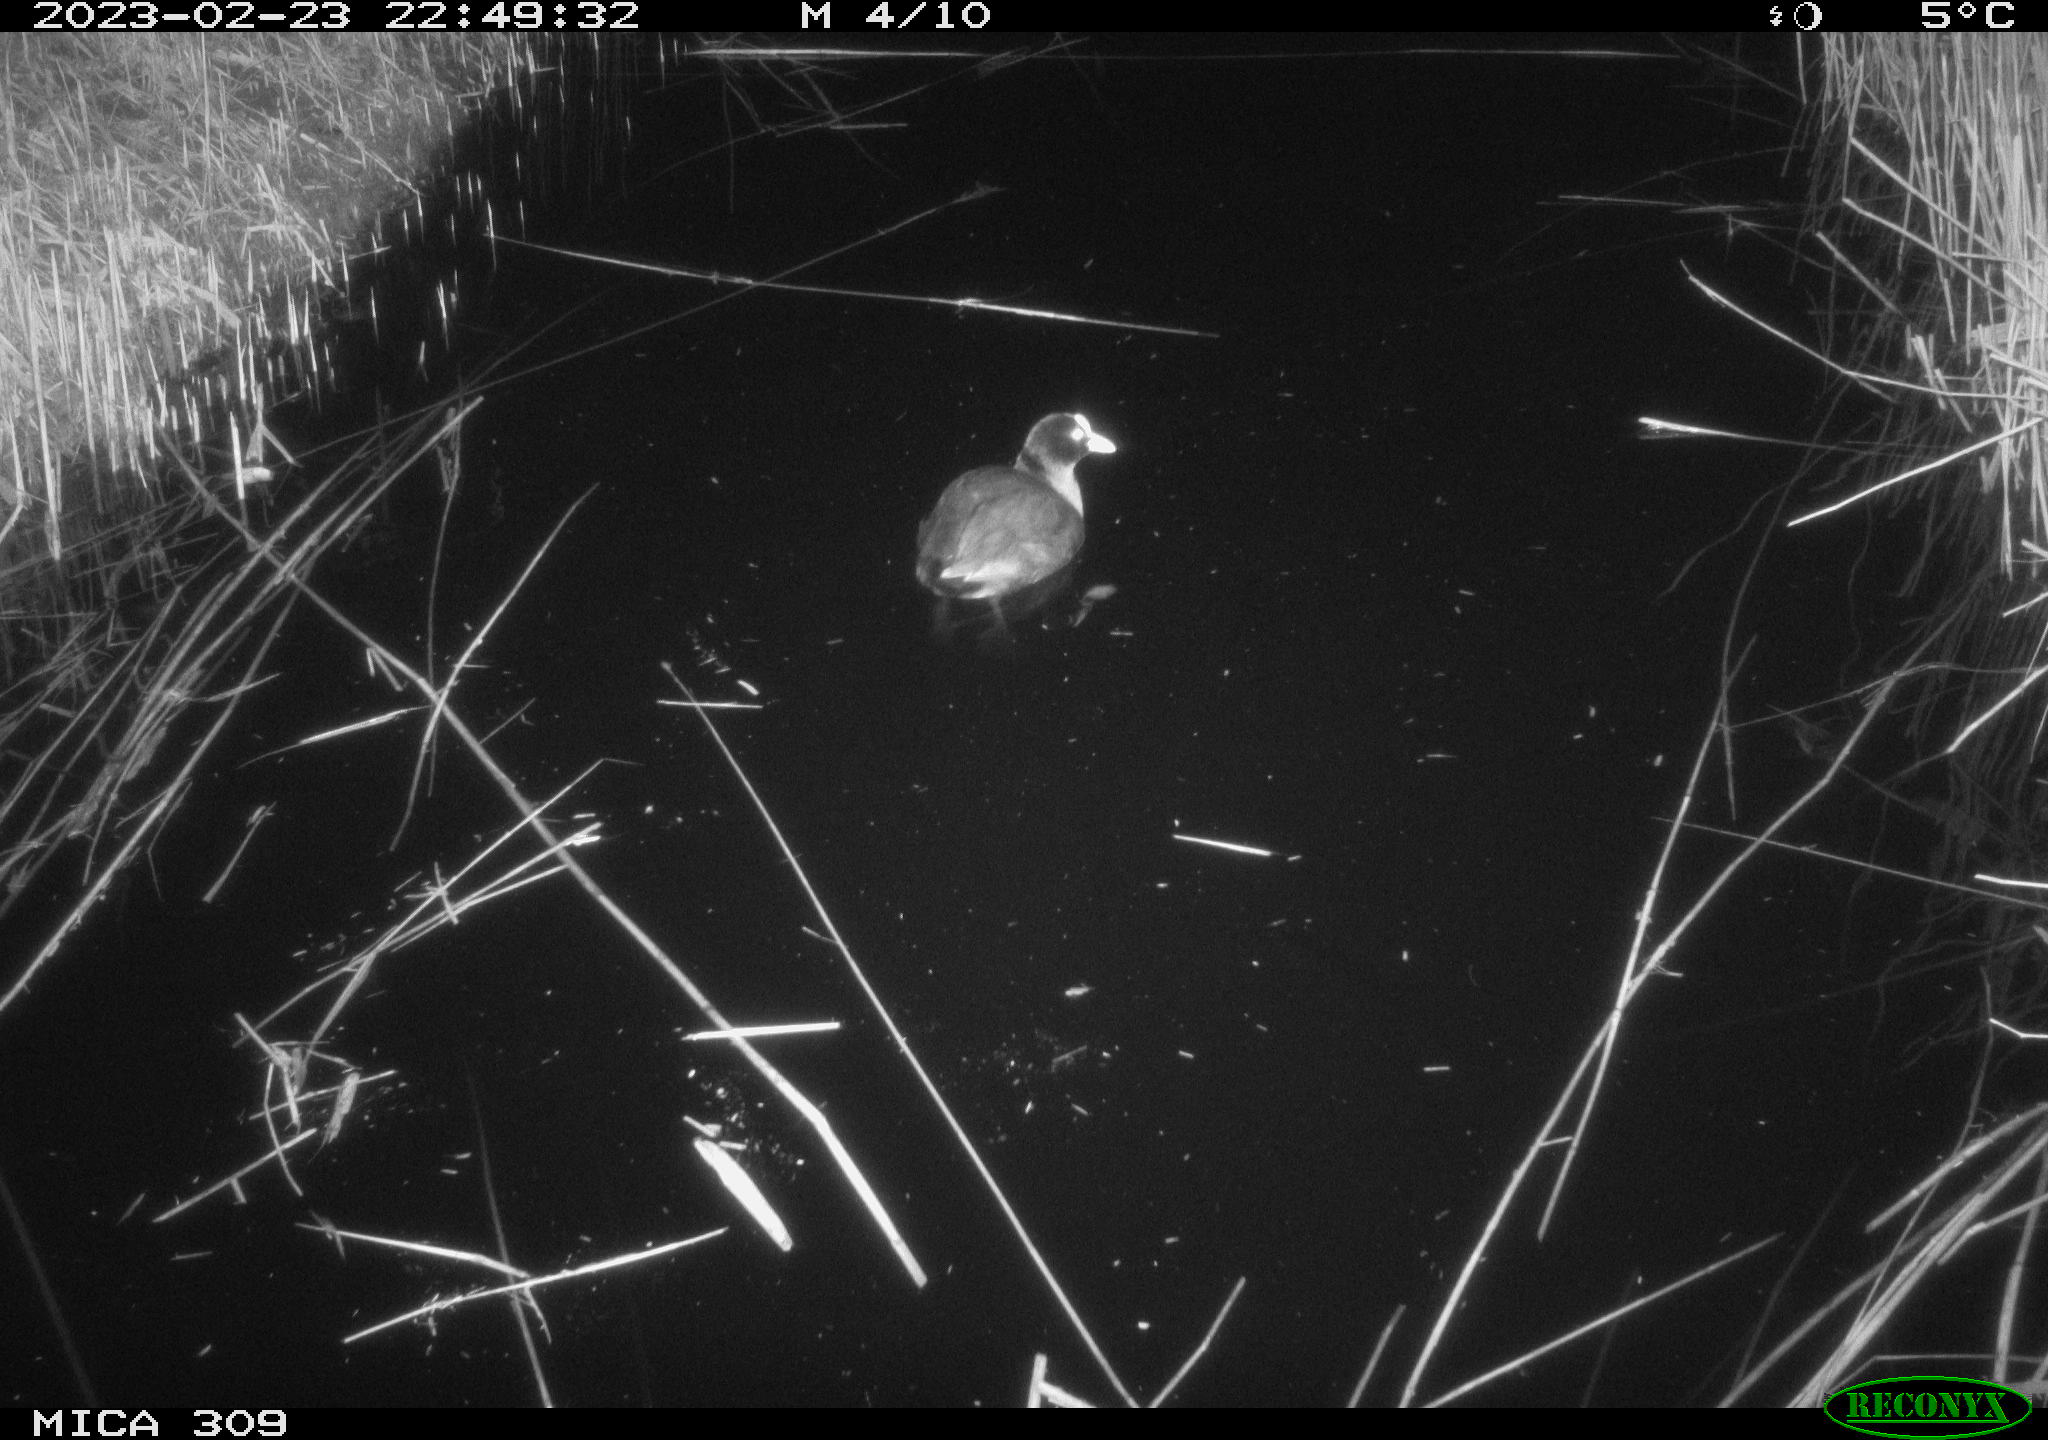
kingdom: Animalia
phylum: Chordata
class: Aves
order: Gruiformes
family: Rallidae
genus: Fulica
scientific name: Fulica atra
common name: Eurasian coot
